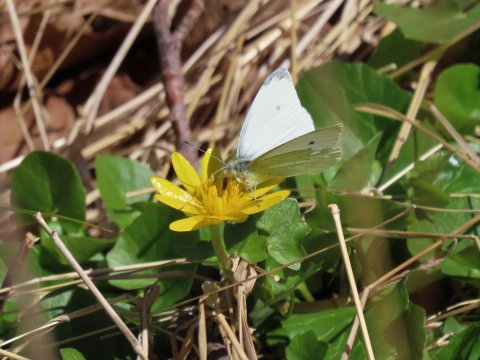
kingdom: Animalia
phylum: Arthropoda
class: Insecta
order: Lepidoptera
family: Pieridae
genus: Pieris
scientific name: Pieris rapae
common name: Cabbage White
